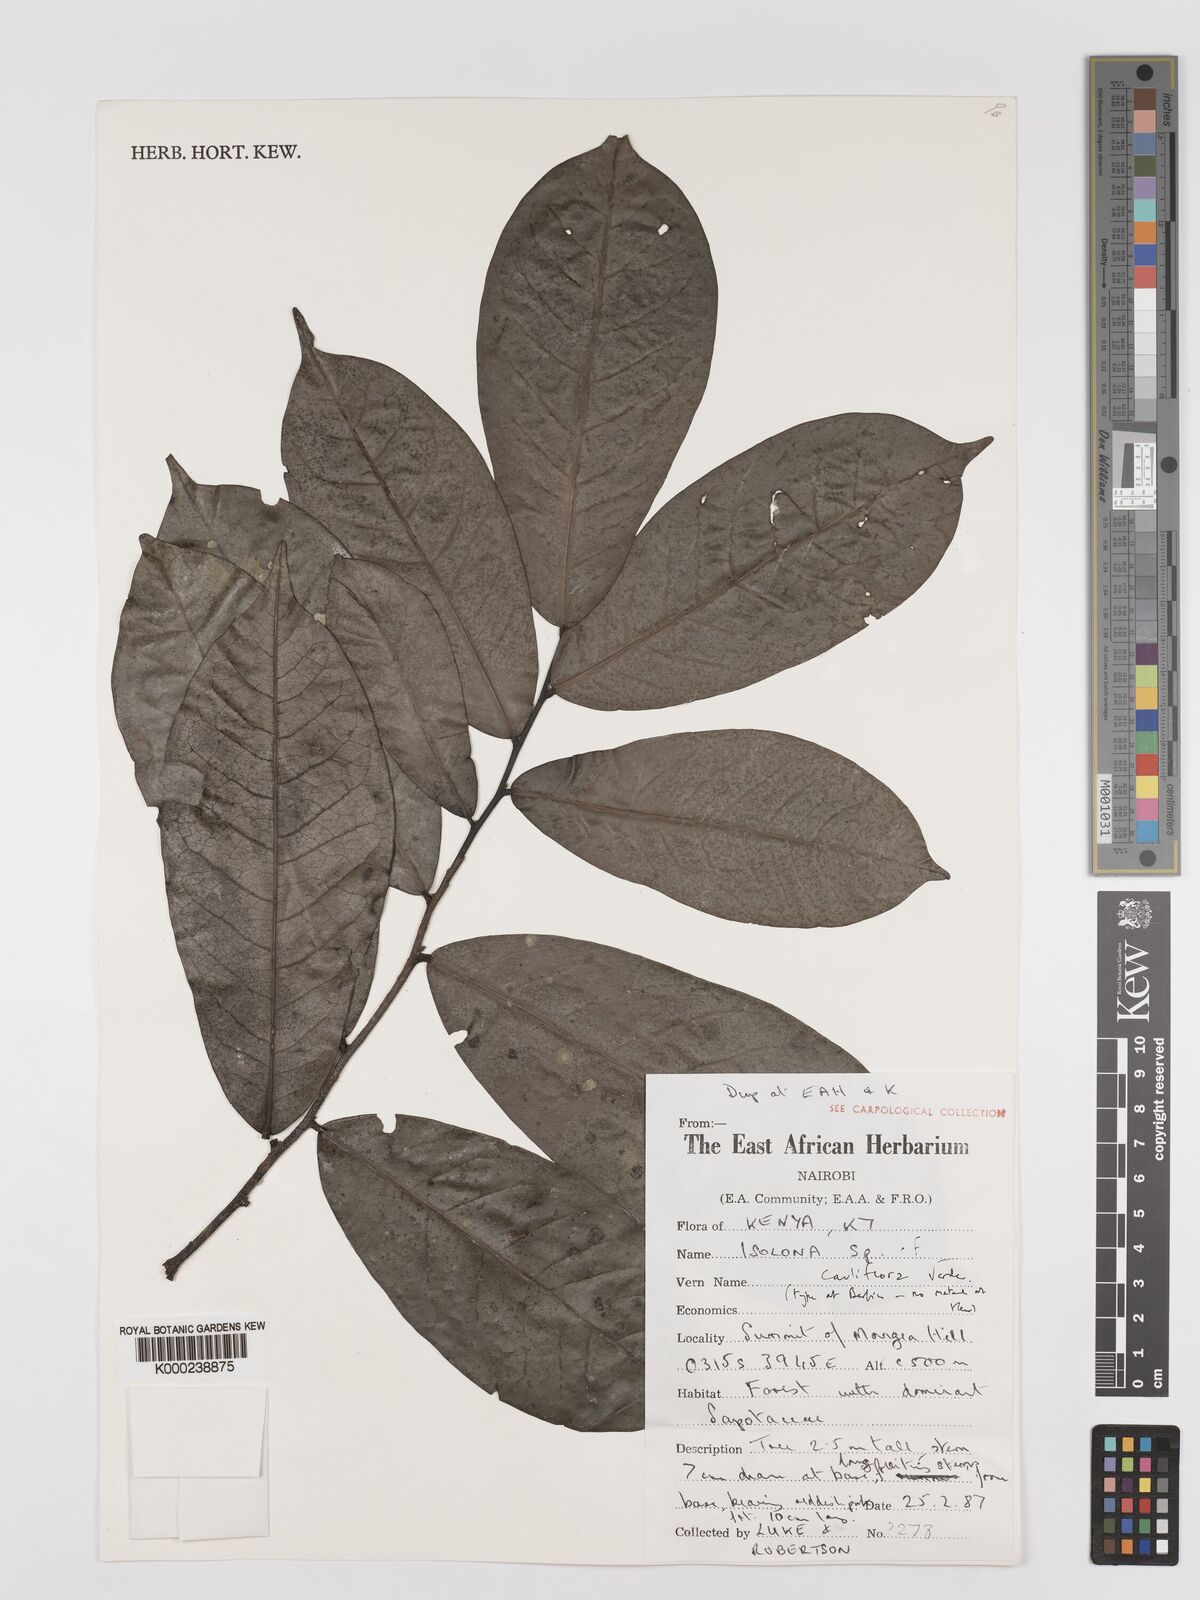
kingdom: Plantae
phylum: Tracheophyta
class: Magnoliopsida
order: Magnoliales
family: Annonaceae
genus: Isolona
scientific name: Isolona cauliflora
